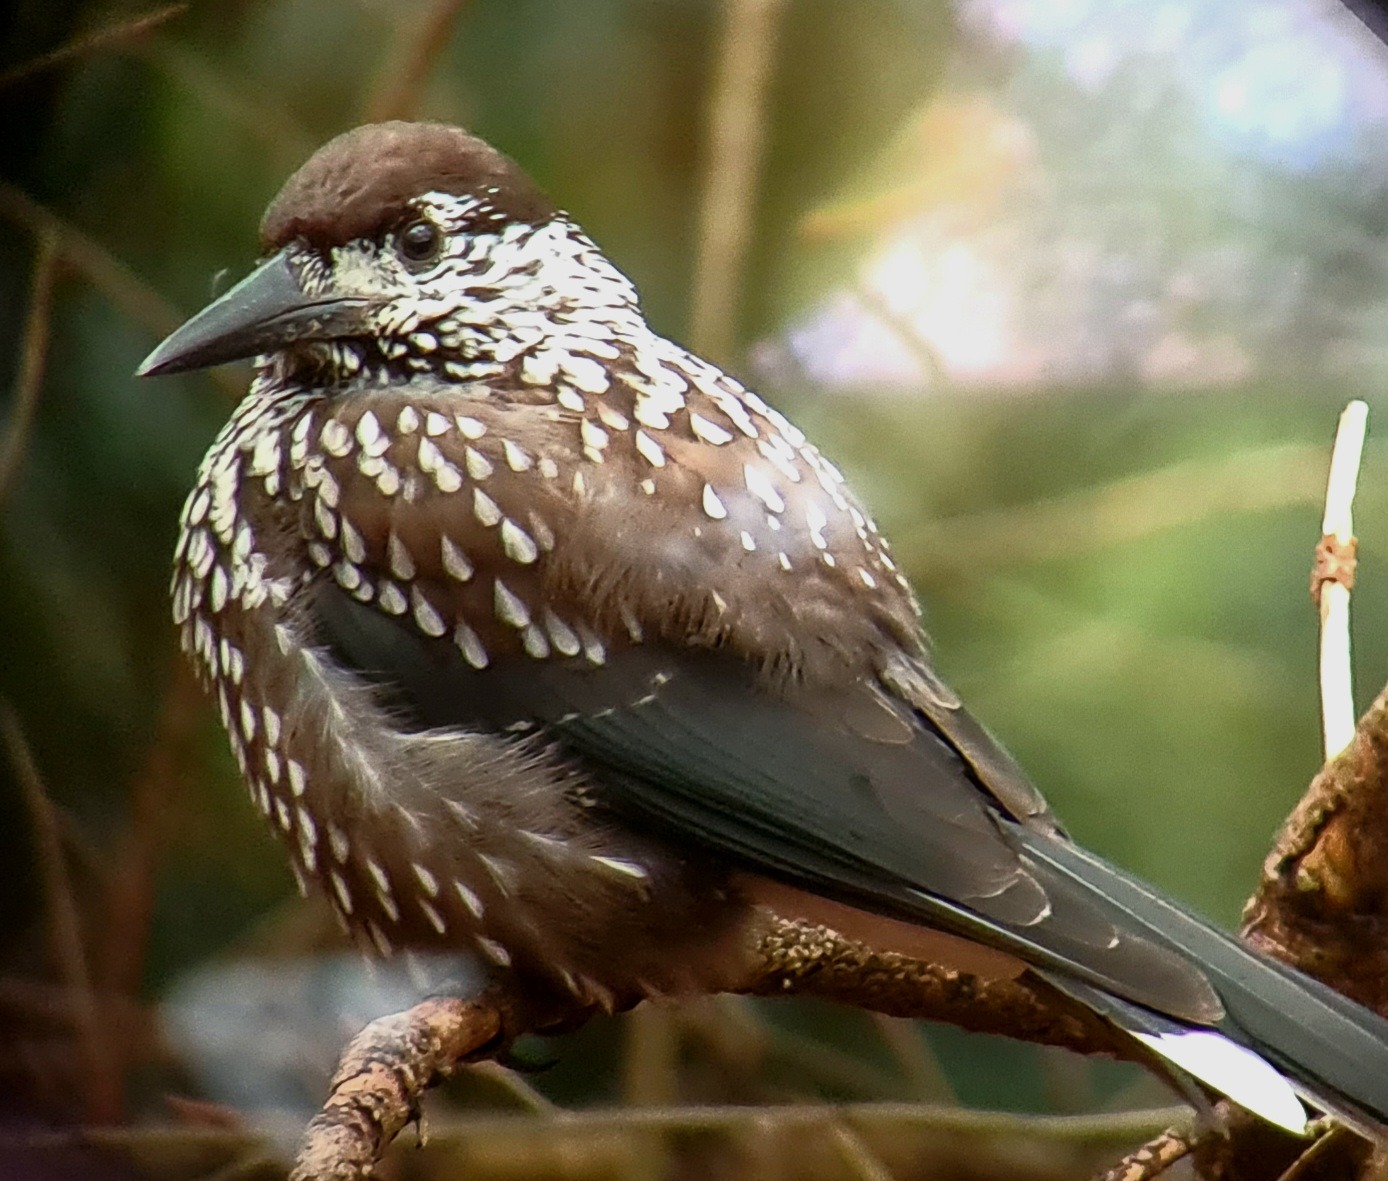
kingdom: Animalia
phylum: Chordata
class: Aves
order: Passeriformes
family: Corvidae
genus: Nucifraga
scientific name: Nucifraga caryocatactes
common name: Tyndnæbbet nøddekrige
